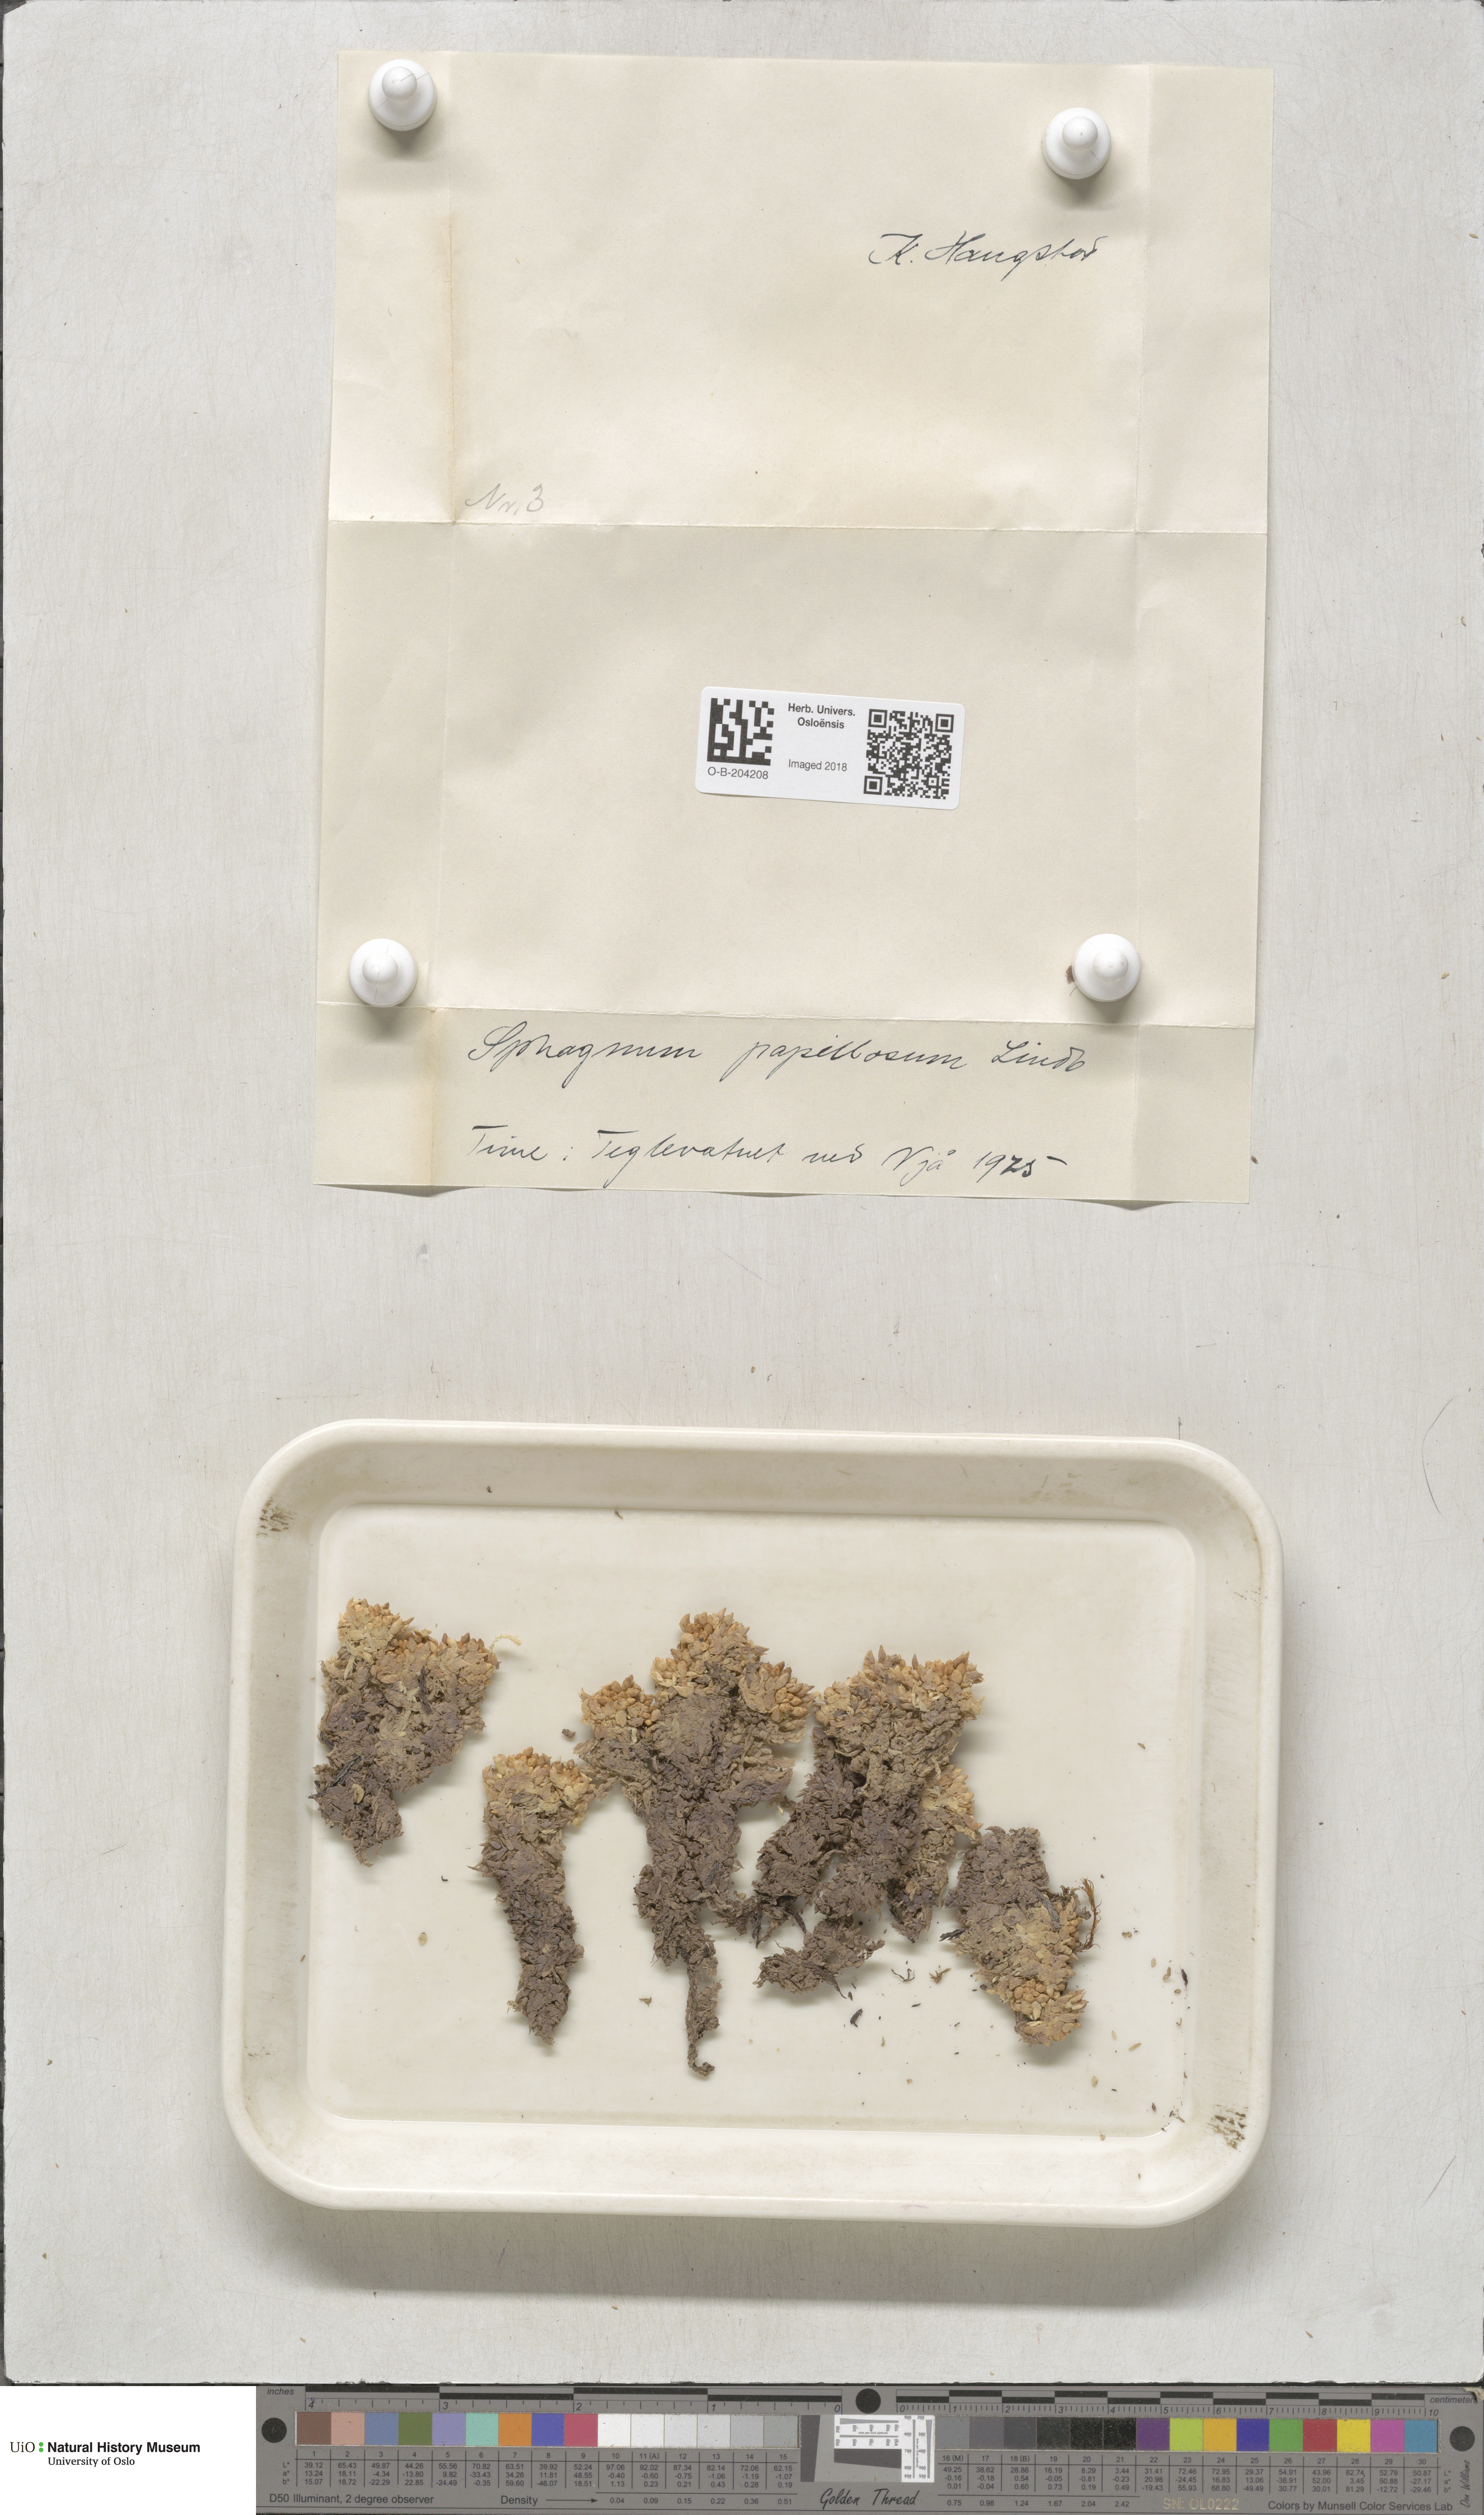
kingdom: Plantae
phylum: Bryophyta
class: Sphagnopsida
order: Sphagnales
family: Sphagnaceae
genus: Sphagnum
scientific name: Sphagnum papillosum
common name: Papillose peat moss
